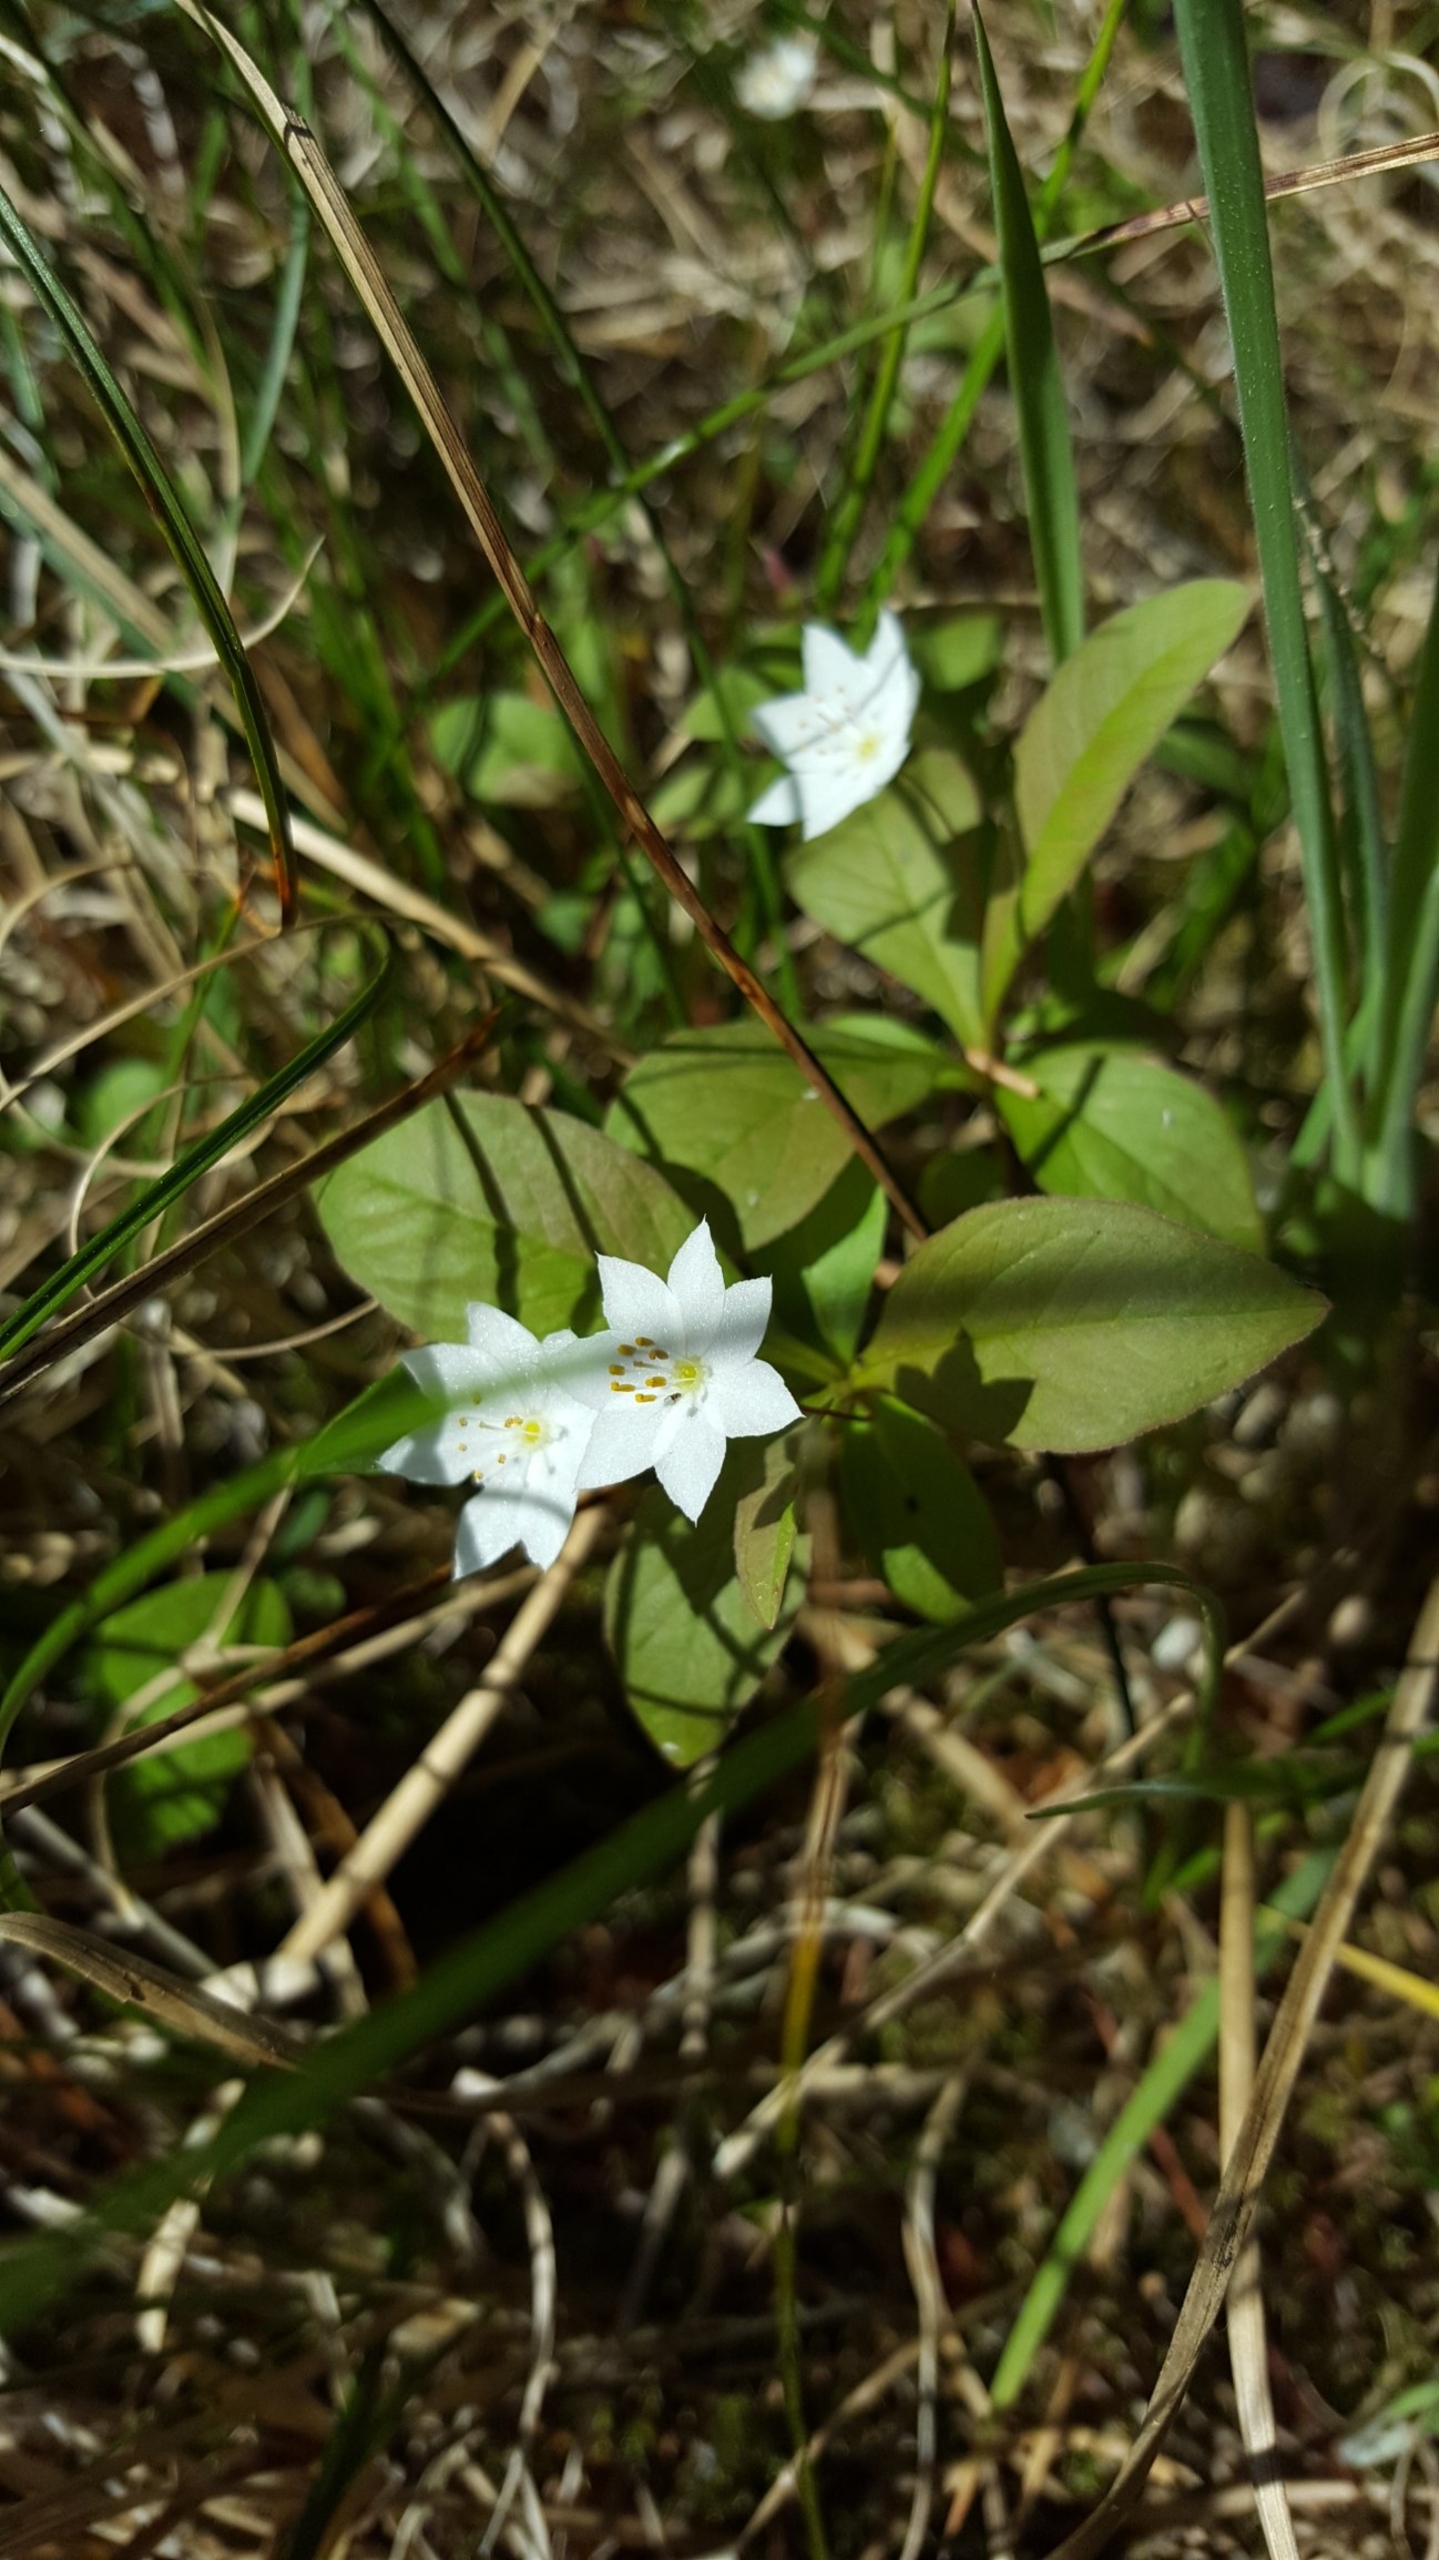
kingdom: Plantae
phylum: Tracheophyta
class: Magnoliopsida
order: Ericales
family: Primulaceae
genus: Lysimachia
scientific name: Lysimachia europaea
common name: Skovstjerne
